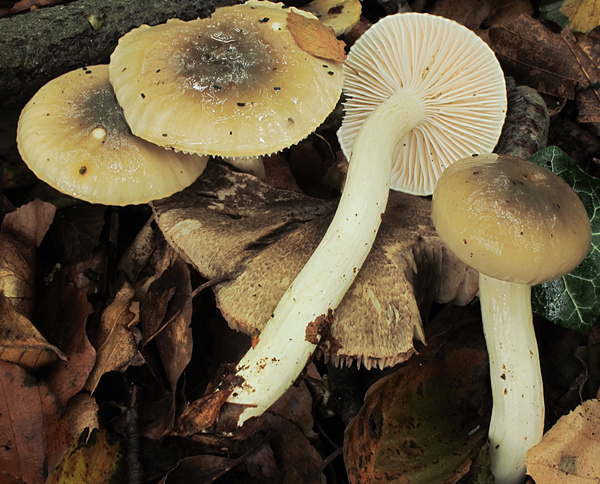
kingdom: Fungi
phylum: Basidiomycota
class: Agaricomycetes
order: Agaricales
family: Hygrophoraceae
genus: Hygrophorus
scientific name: Hygrophorus mesotephrus
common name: askegrå sneglehat
